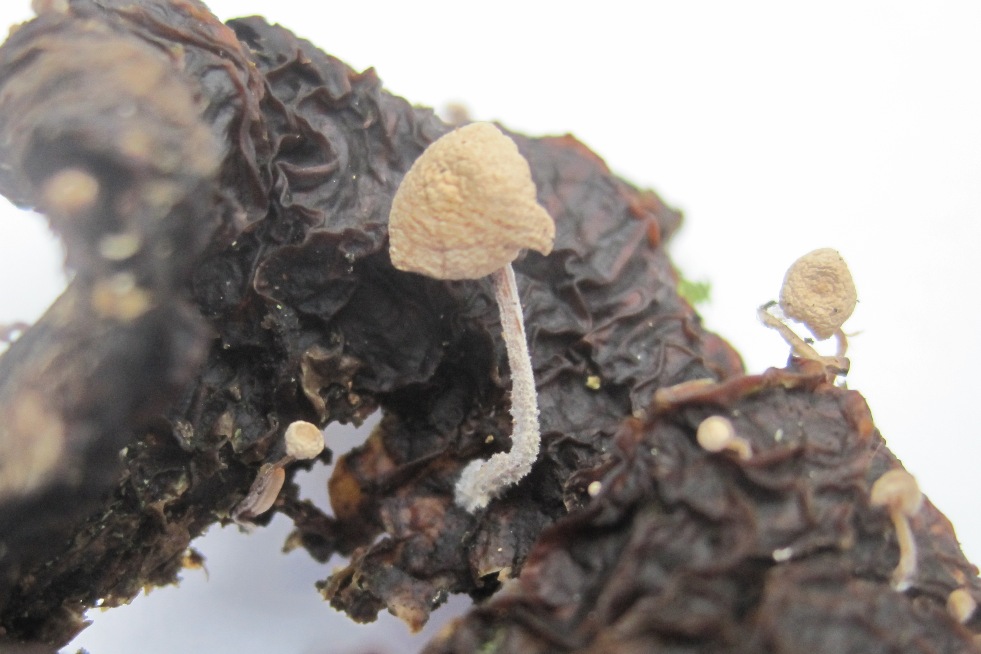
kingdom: Fungi
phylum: Basidiomycota
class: Agaricomycetes
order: Agaricales
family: Tricholomataceae
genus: Collybia
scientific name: Collybia cirrhata
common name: silke-lighat
